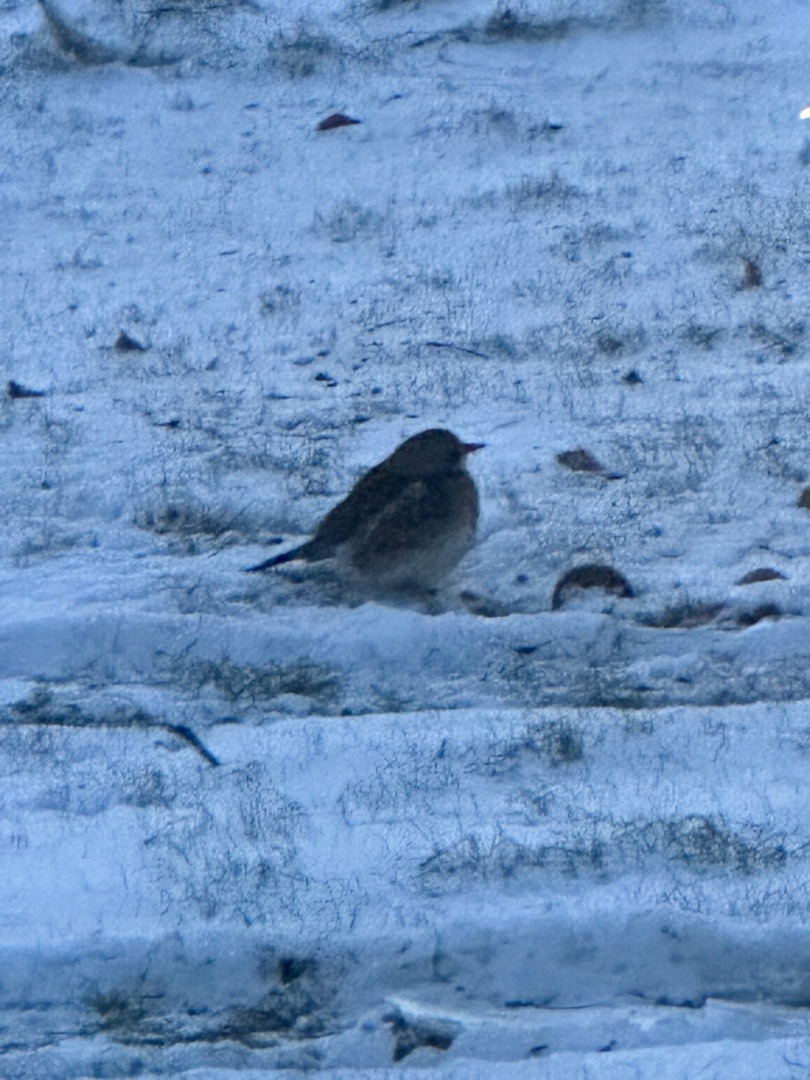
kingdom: Animalia
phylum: Chordata
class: Aves
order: Passeriformes
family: Turdidae
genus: Turdus
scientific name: Turdus pilaris
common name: Sjagger
